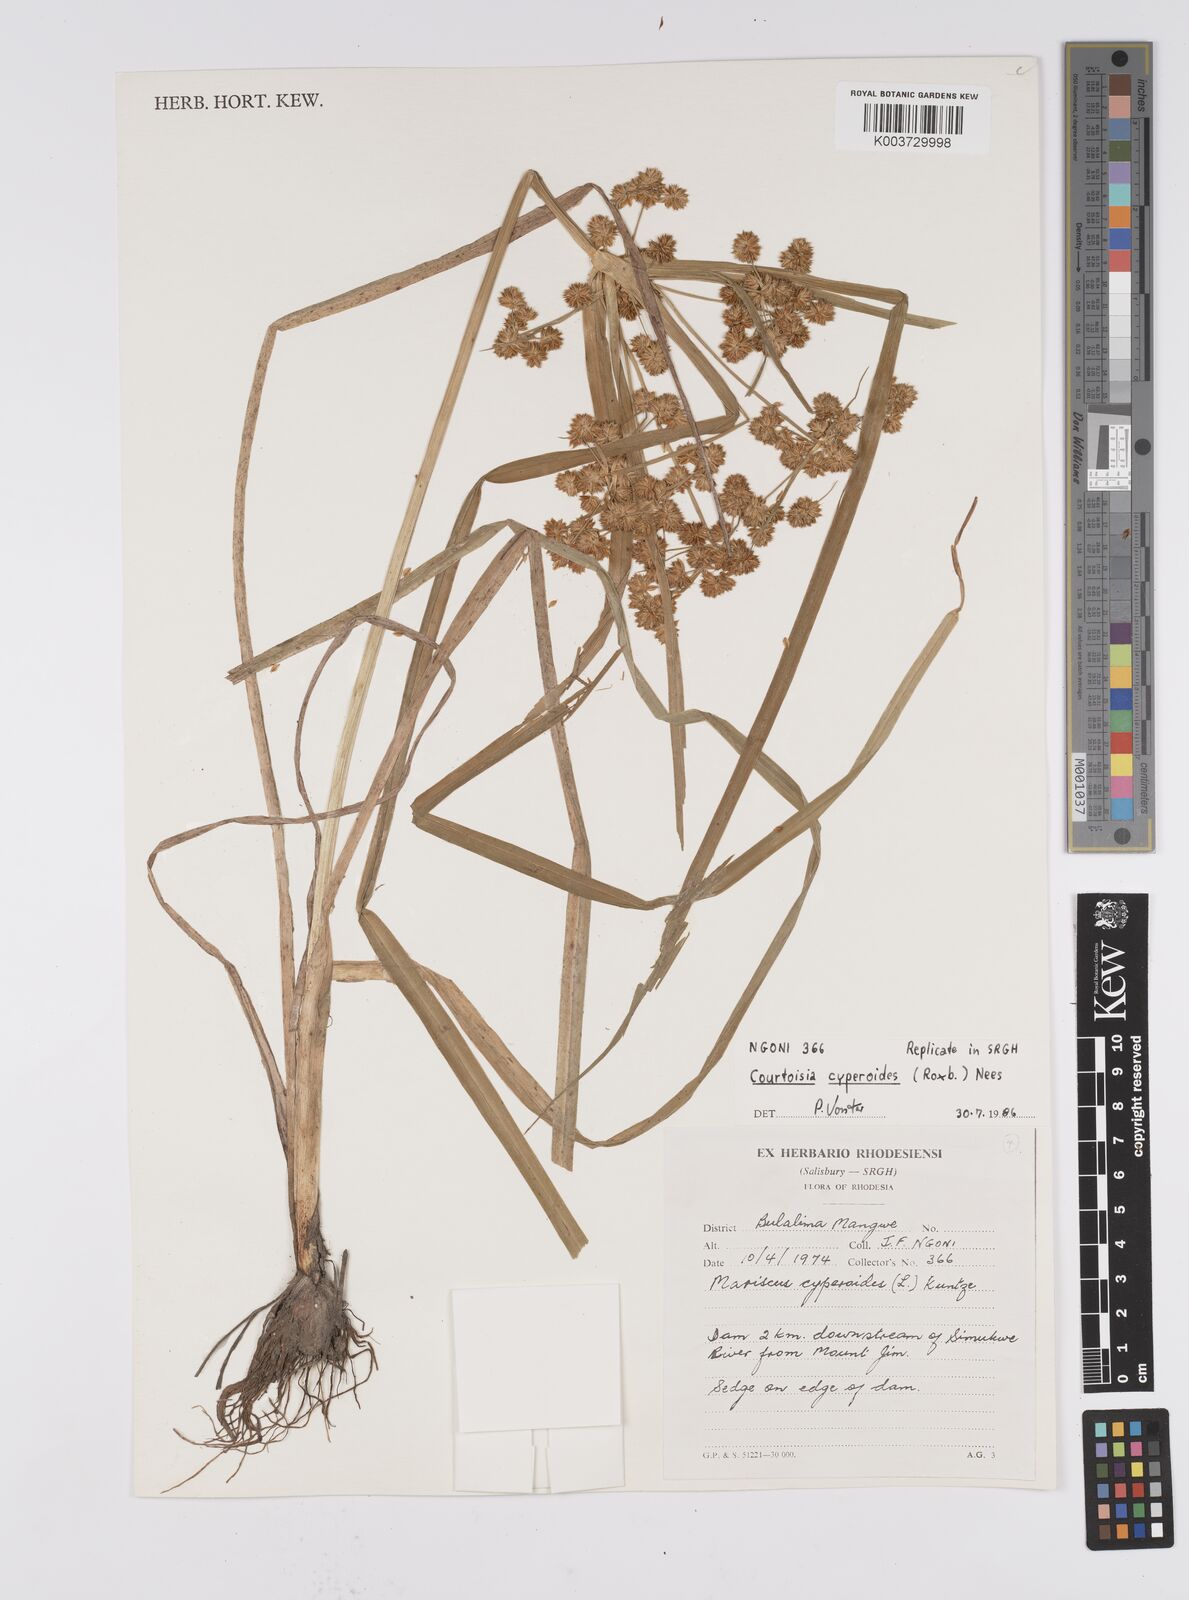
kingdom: Plantae
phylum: Tracheophyta
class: Liliopsida
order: Poales
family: Cyperaceae
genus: Cyperus
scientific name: Cyperus cyperoides
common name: Pacific island flat sedge
